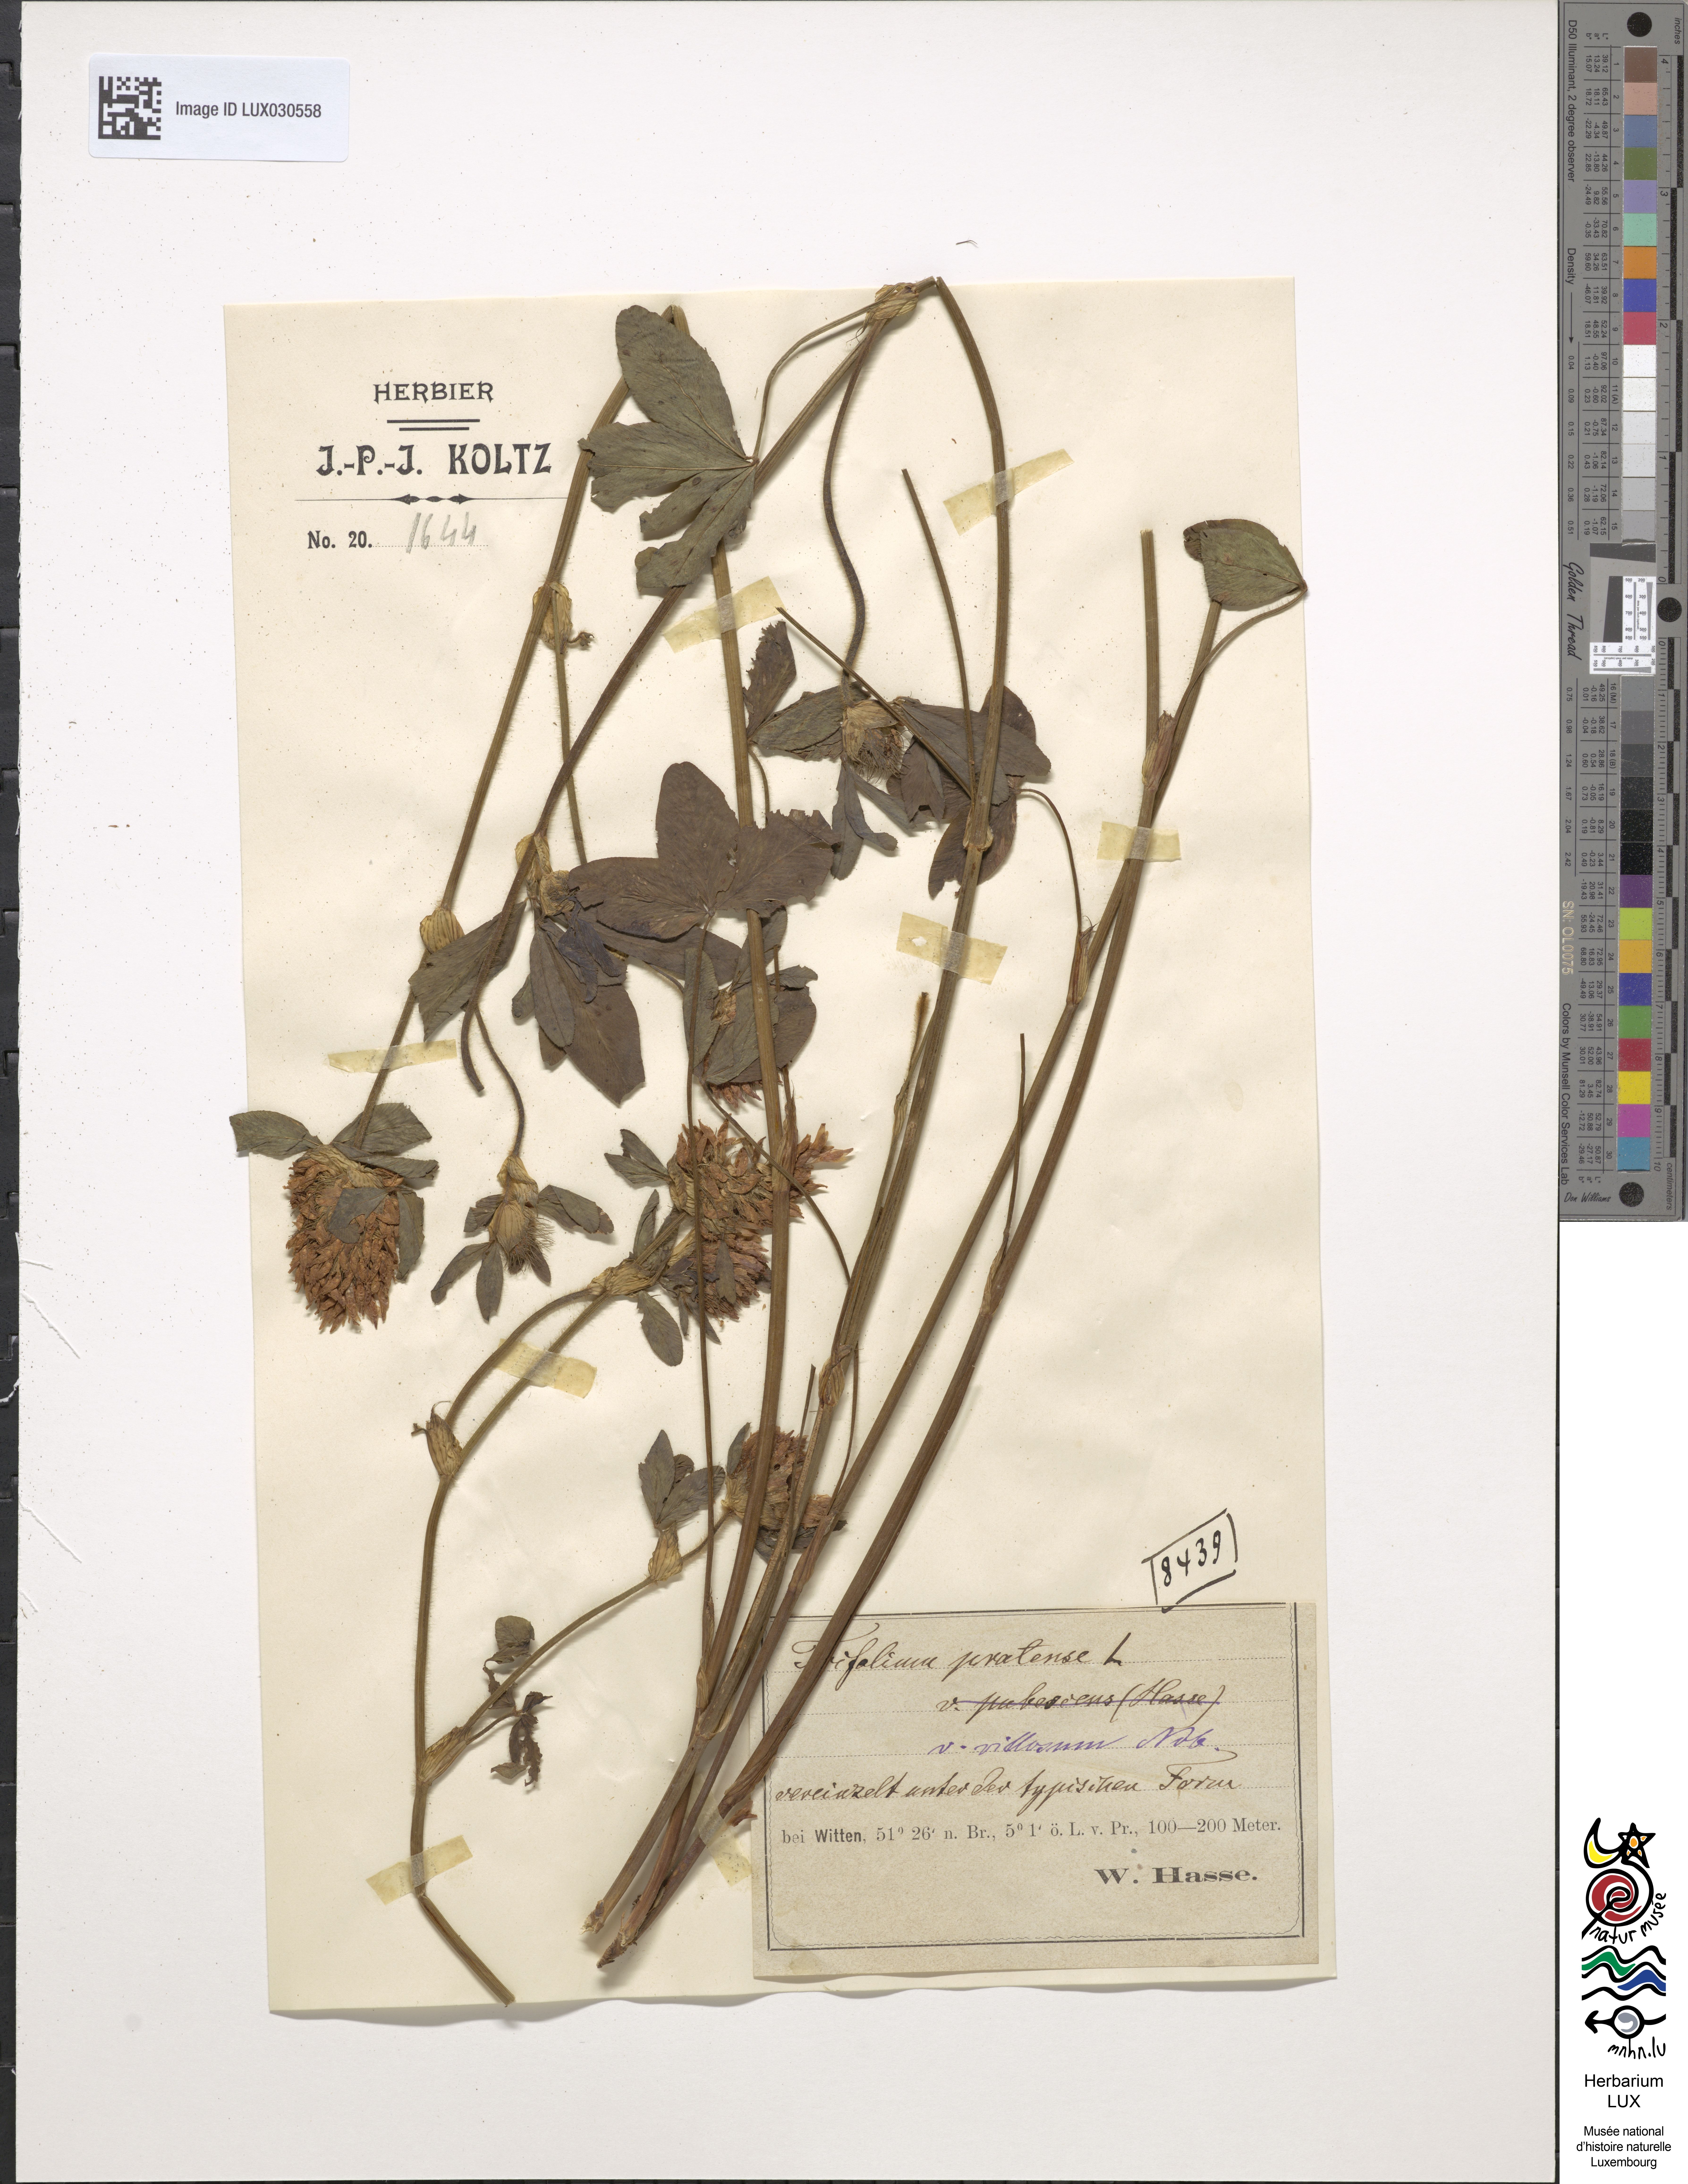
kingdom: Plantae
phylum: Tracheophyta
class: Magnoliopsida
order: Fabales
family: Fabaceae
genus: Trifolium
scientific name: Trifolium pratense
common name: Red clover
